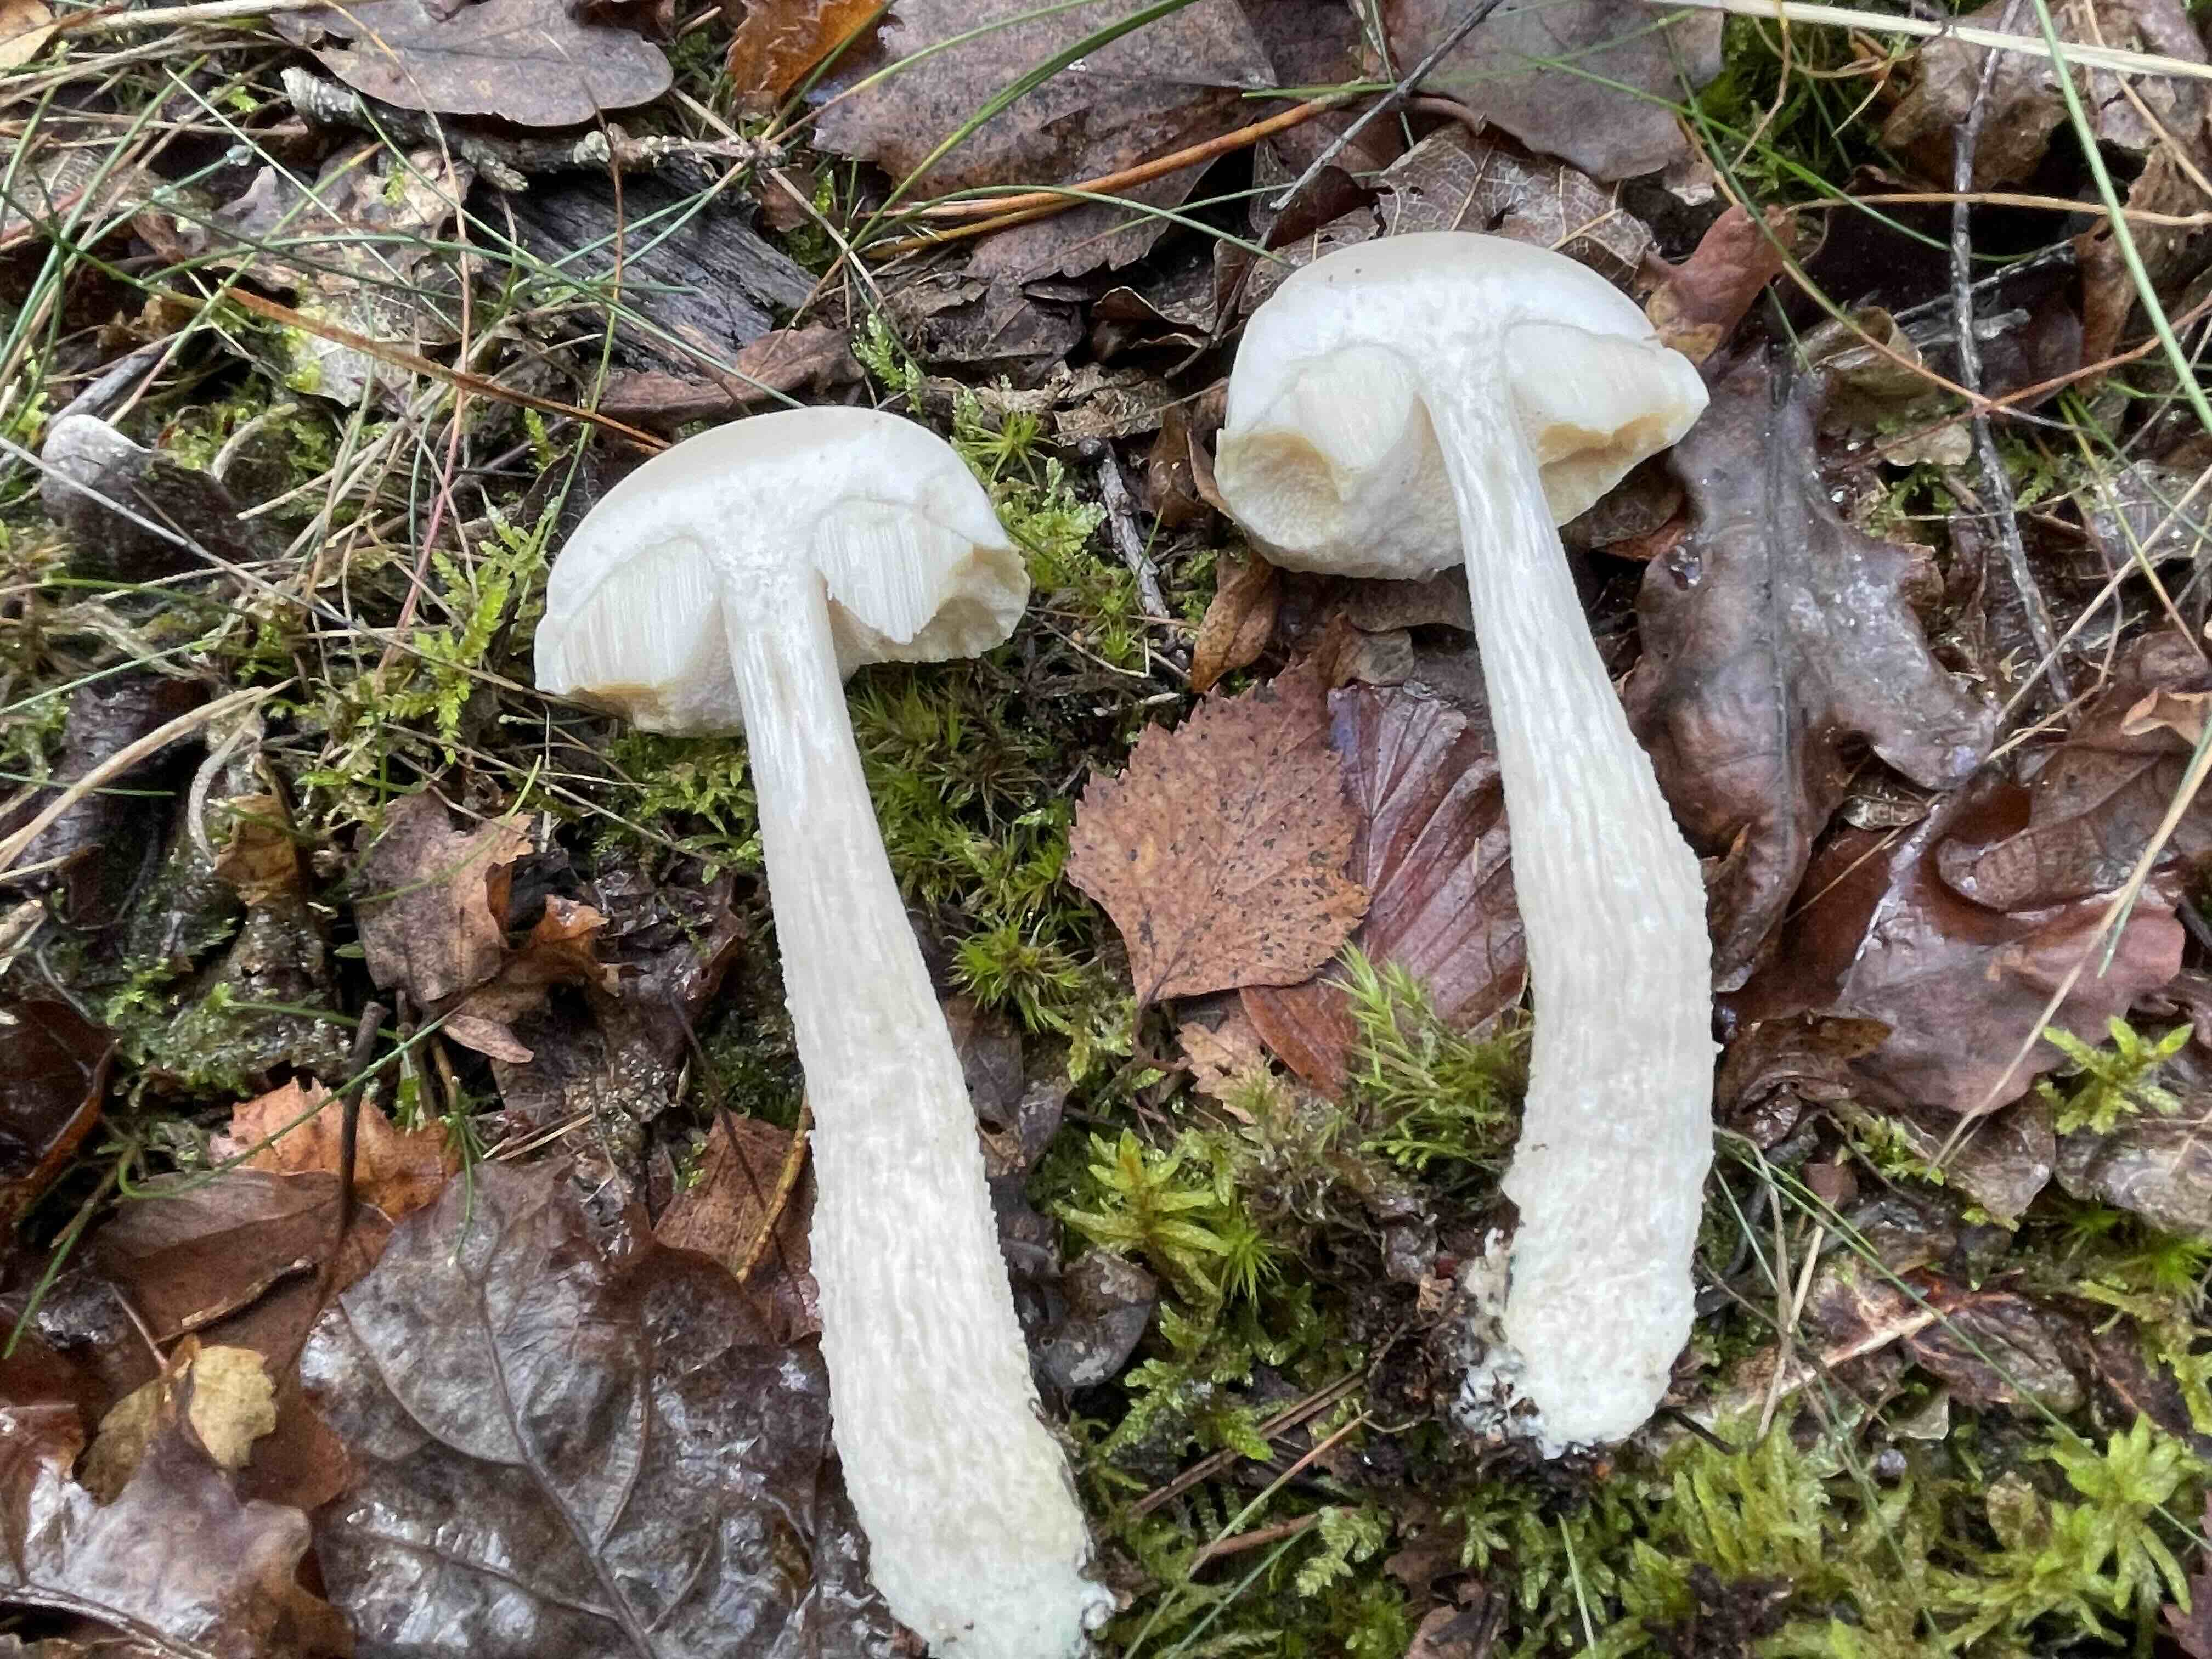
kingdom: Fungi
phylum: Basidiomycota
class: Agaricomycetes
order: Boletales
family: Boletaceae
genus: Leccinum
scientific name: Leccinum scabrum
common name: hvid skælrørhat
